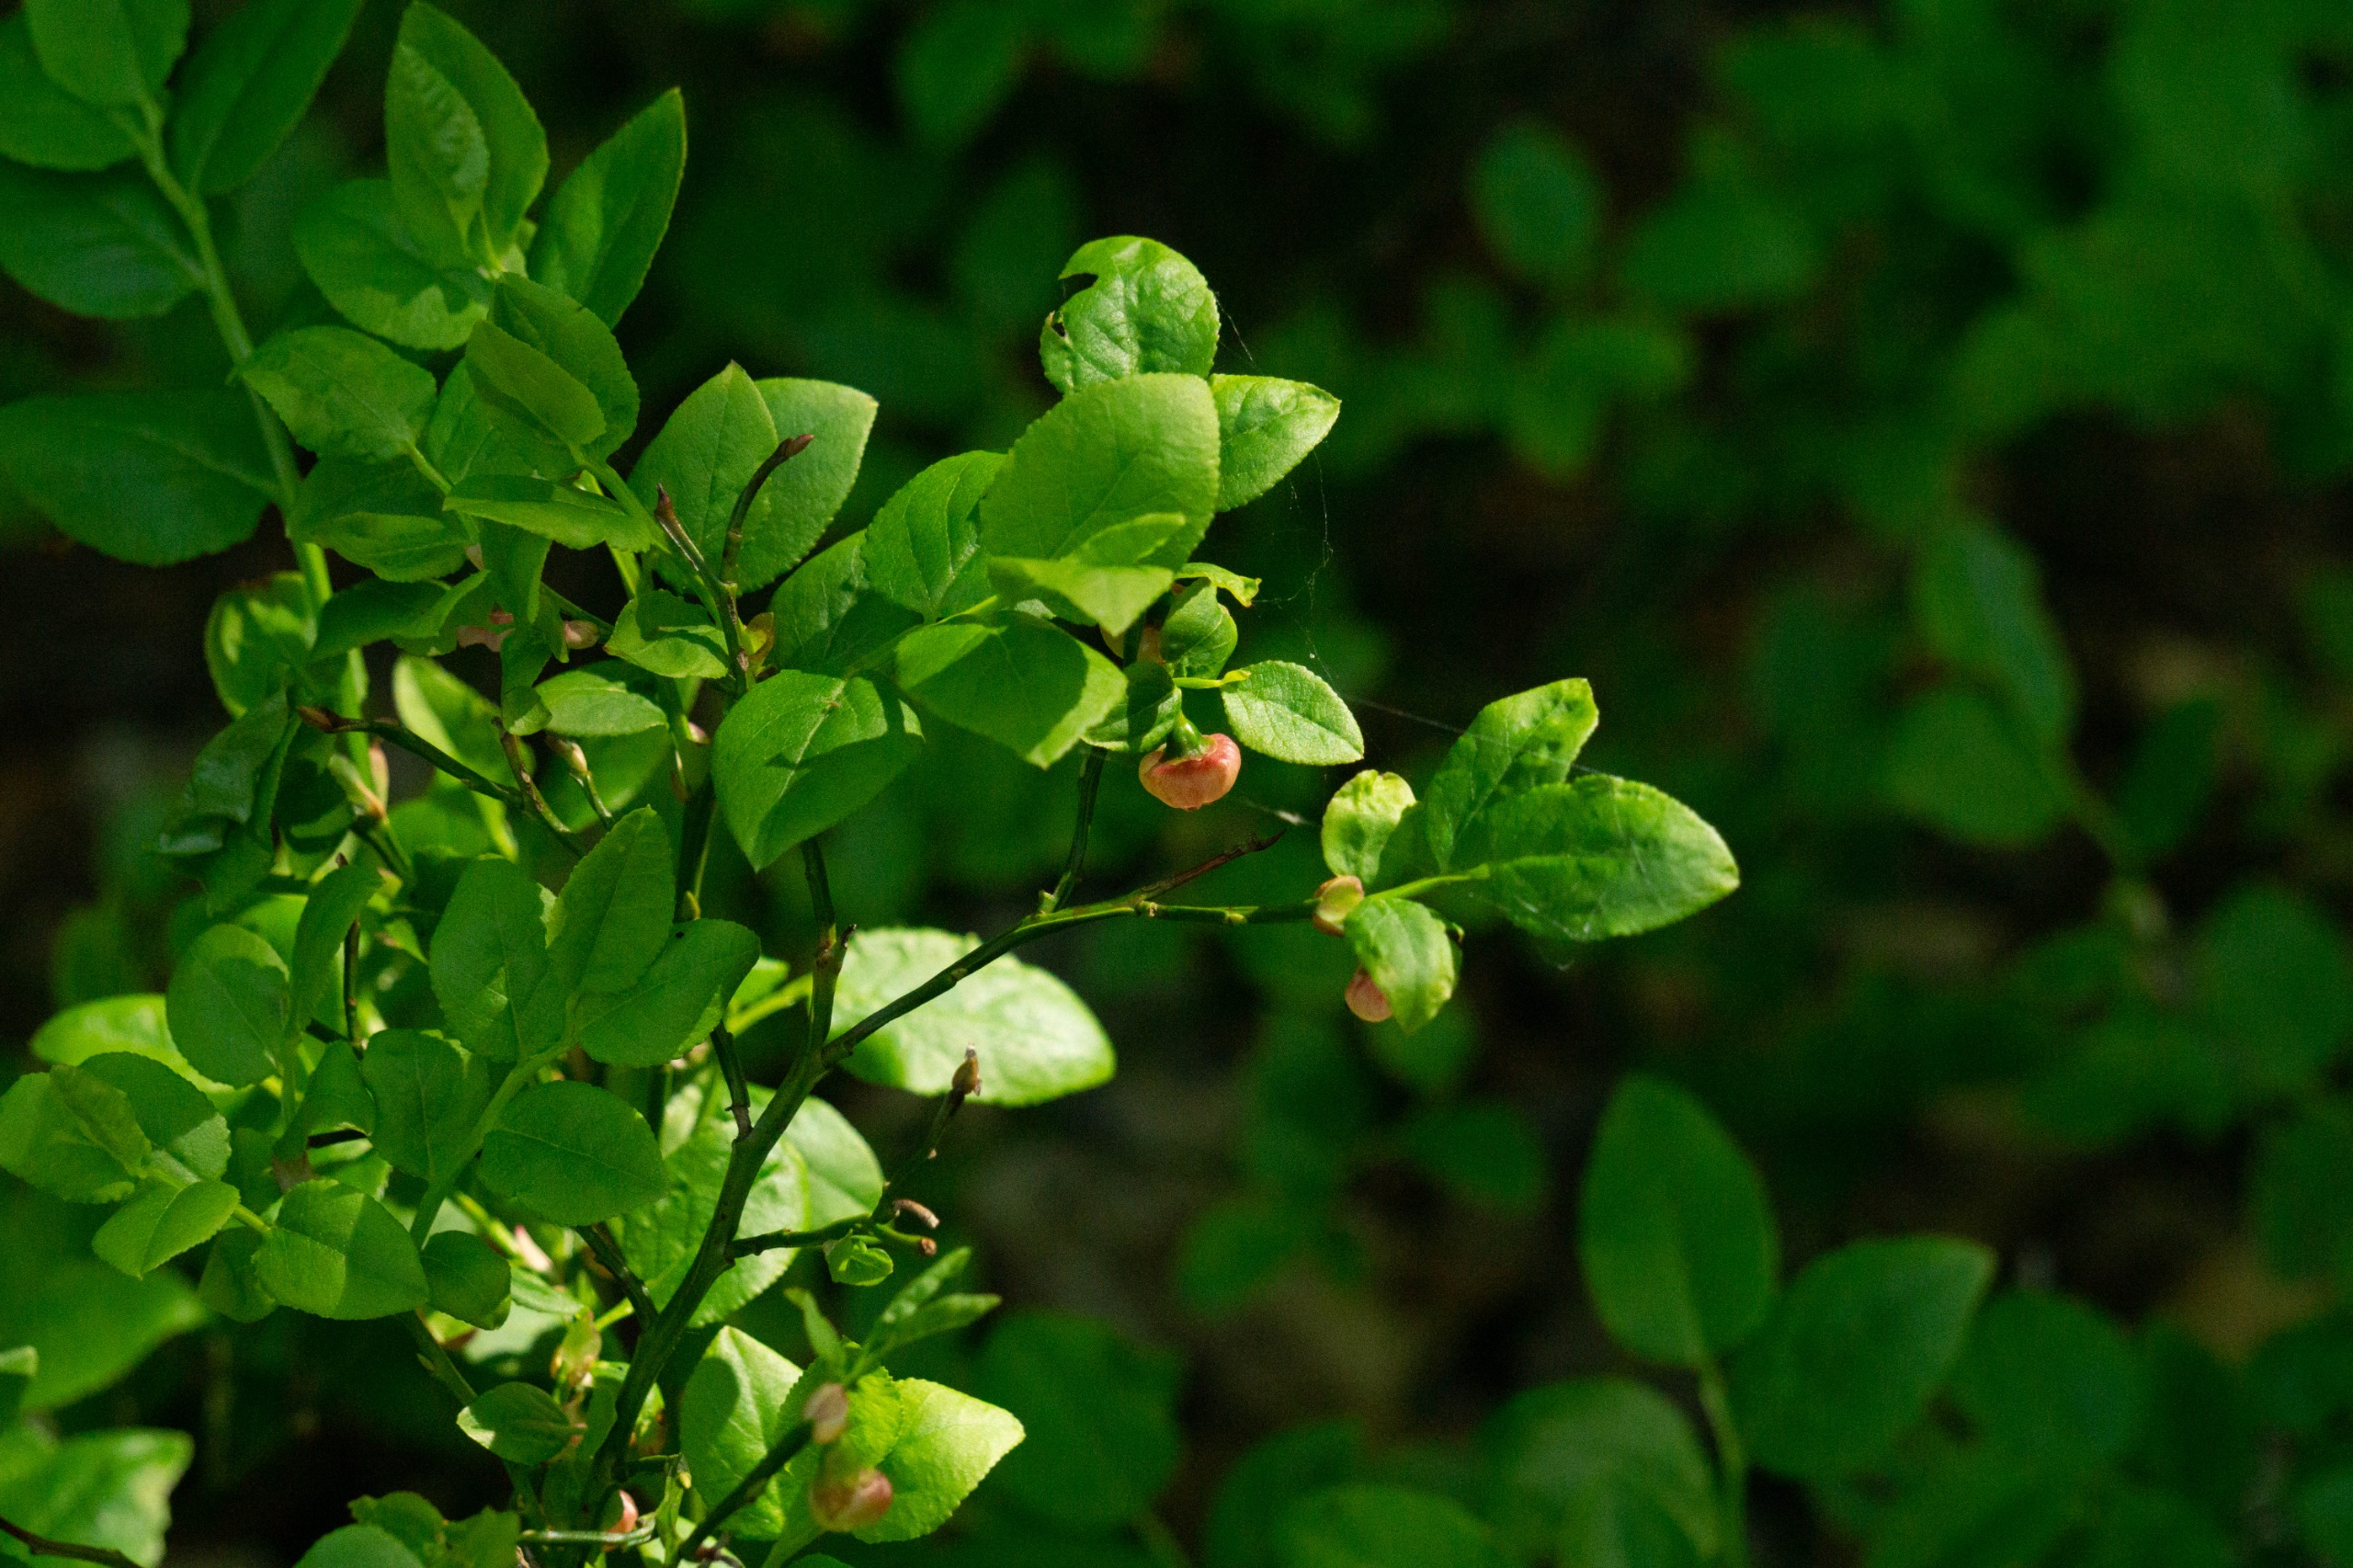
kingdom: Plantae
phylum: Tracheophyta
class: Magnoliopsida
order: Ericales
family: Ericaceae
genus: Vaccinium
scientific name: Vaccinium myrtillus
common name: Blåbær
